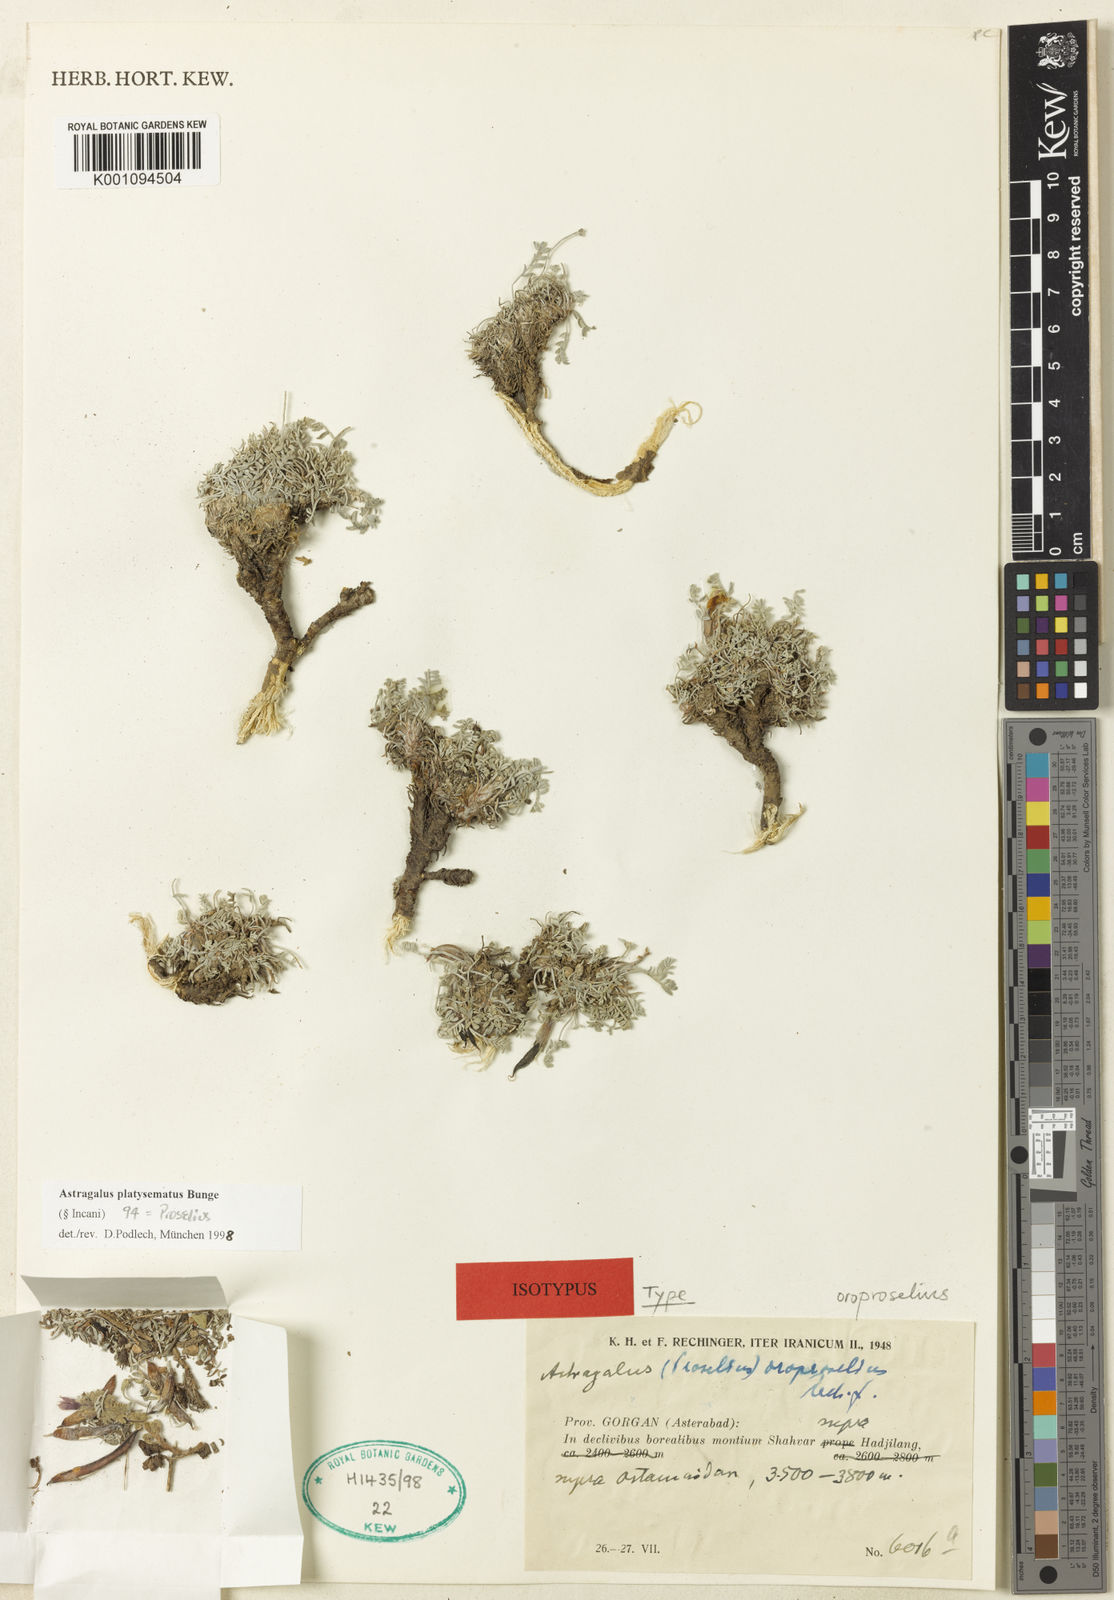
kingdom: Plantae
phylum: Tracheophyta
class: Magnoliopsida
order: Fabales
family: Fabaceae
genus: Astragalus
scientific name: Astragalus
